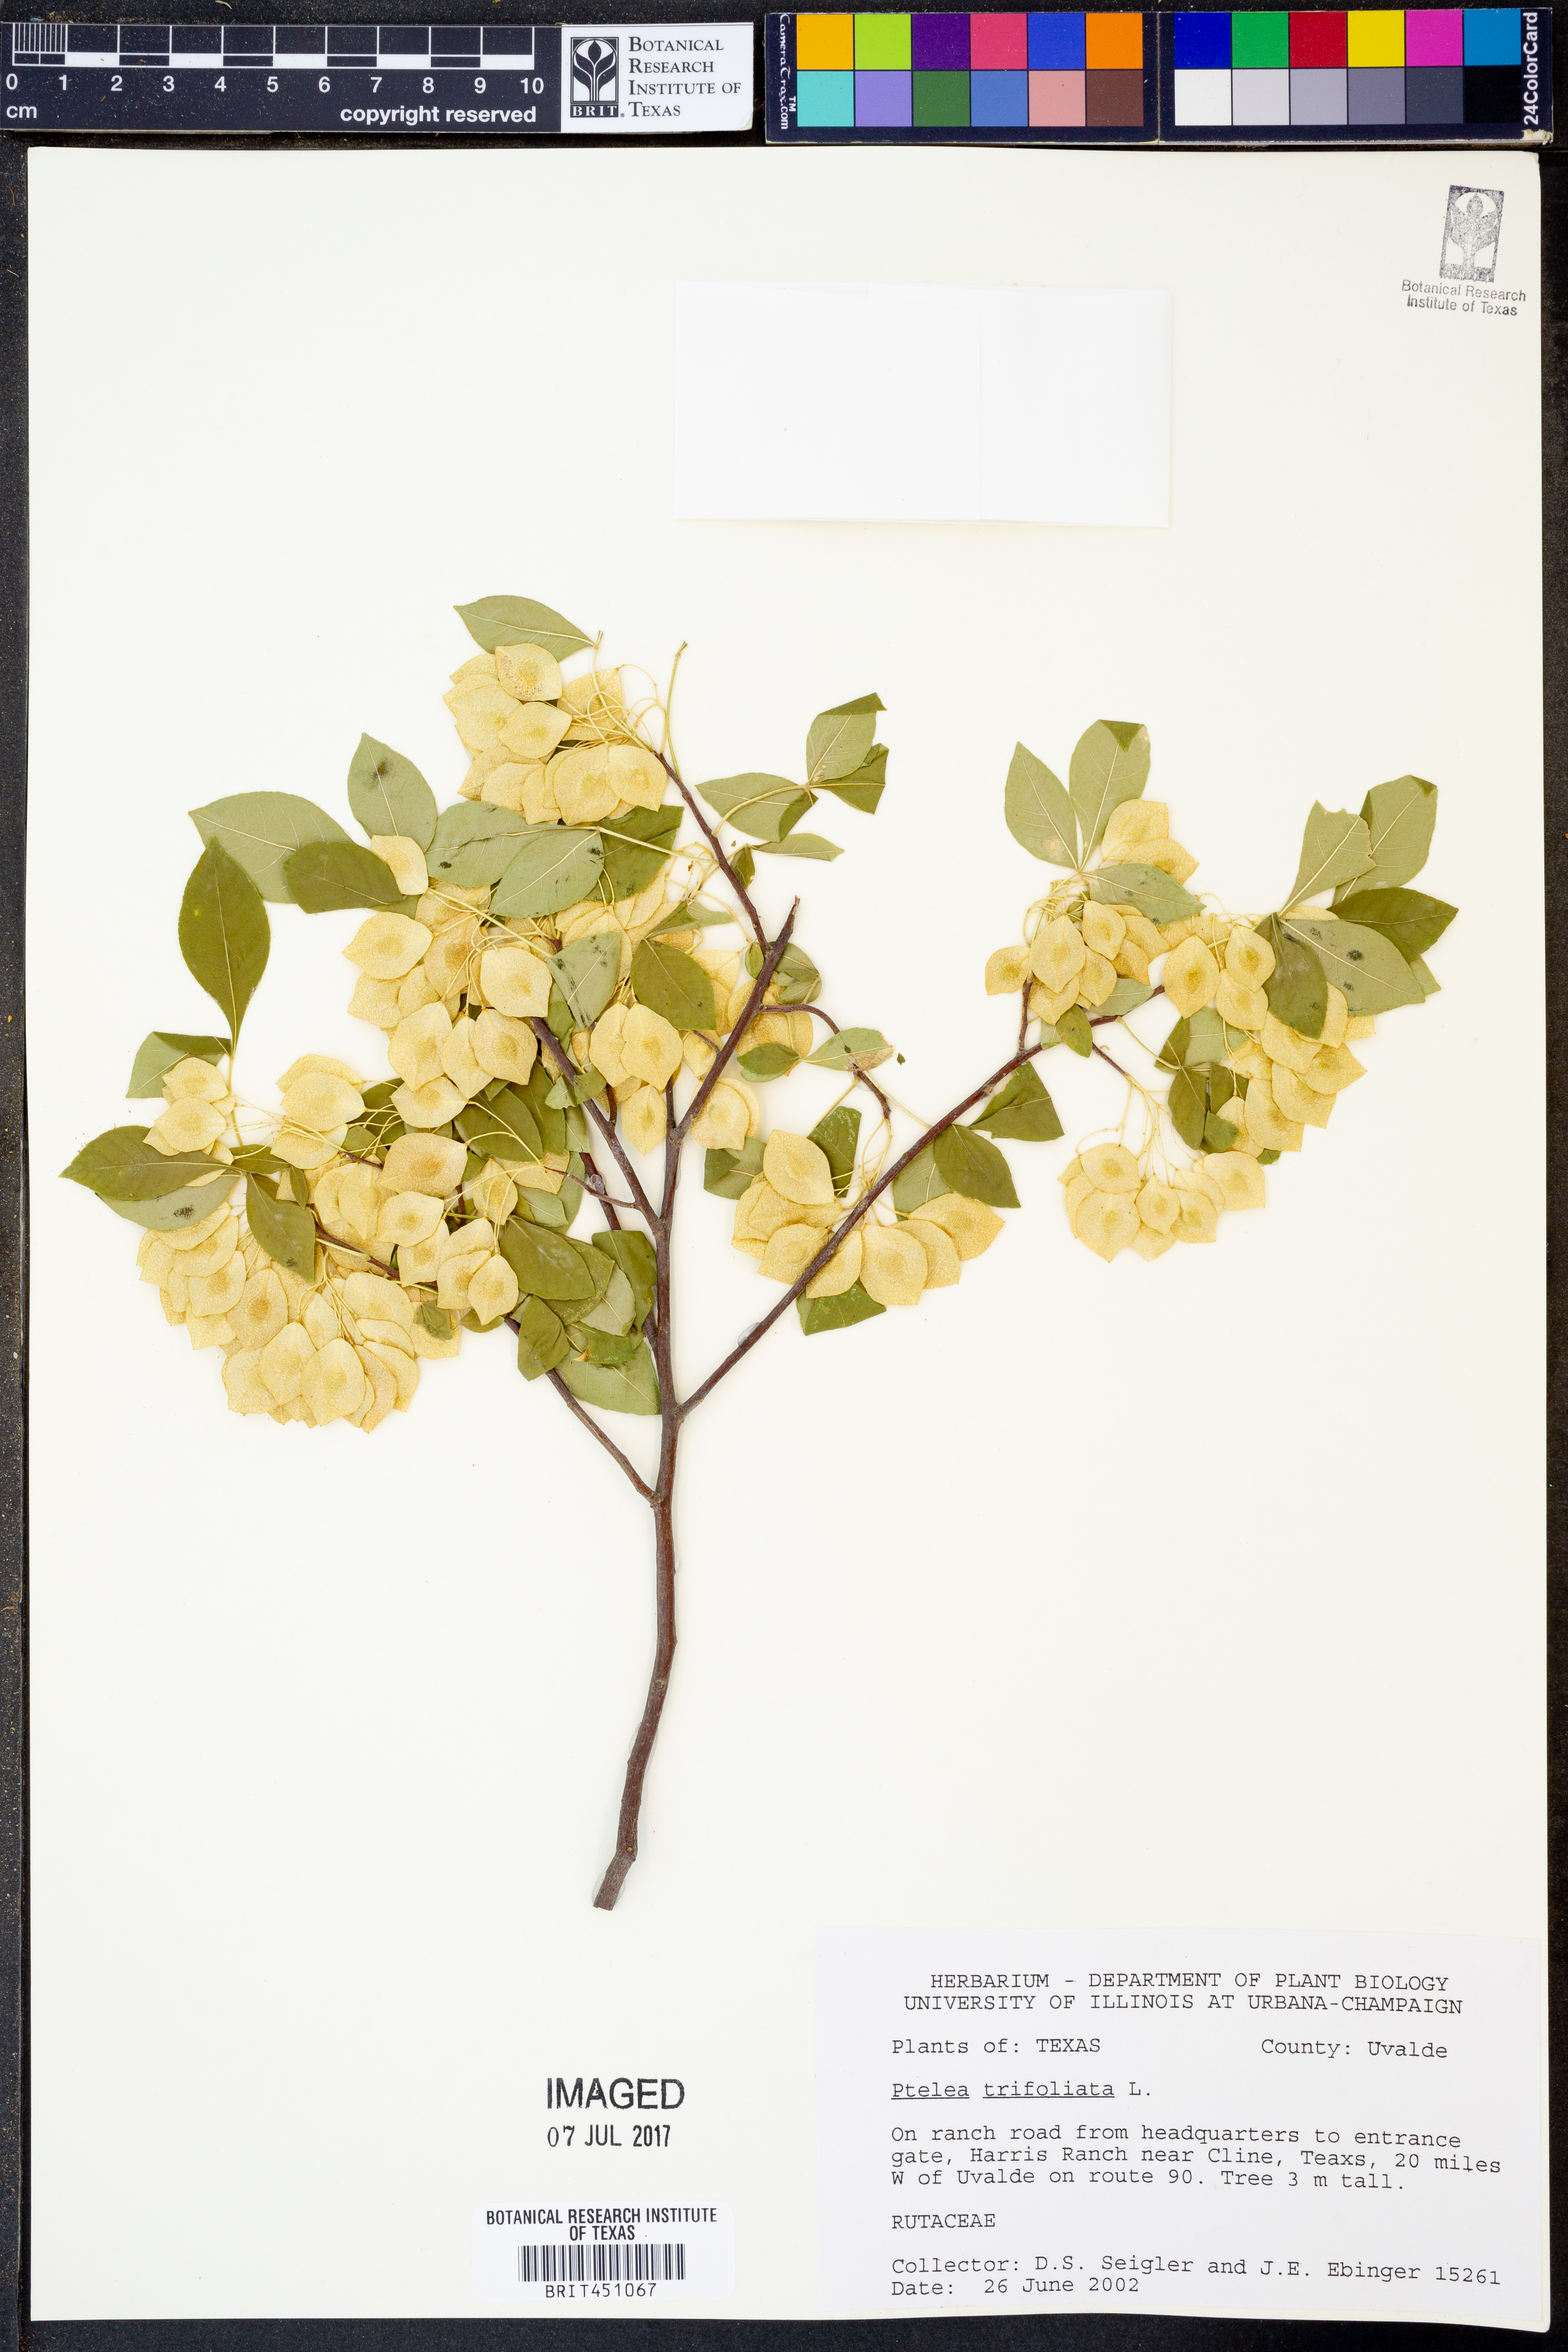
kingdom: Plantae
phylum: Tracheophyta
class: Magnoliopsida
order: Sapindales
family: Rutaceae
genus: Ptelea
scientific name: Ptelea trifoliata
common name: Common hop-tree
